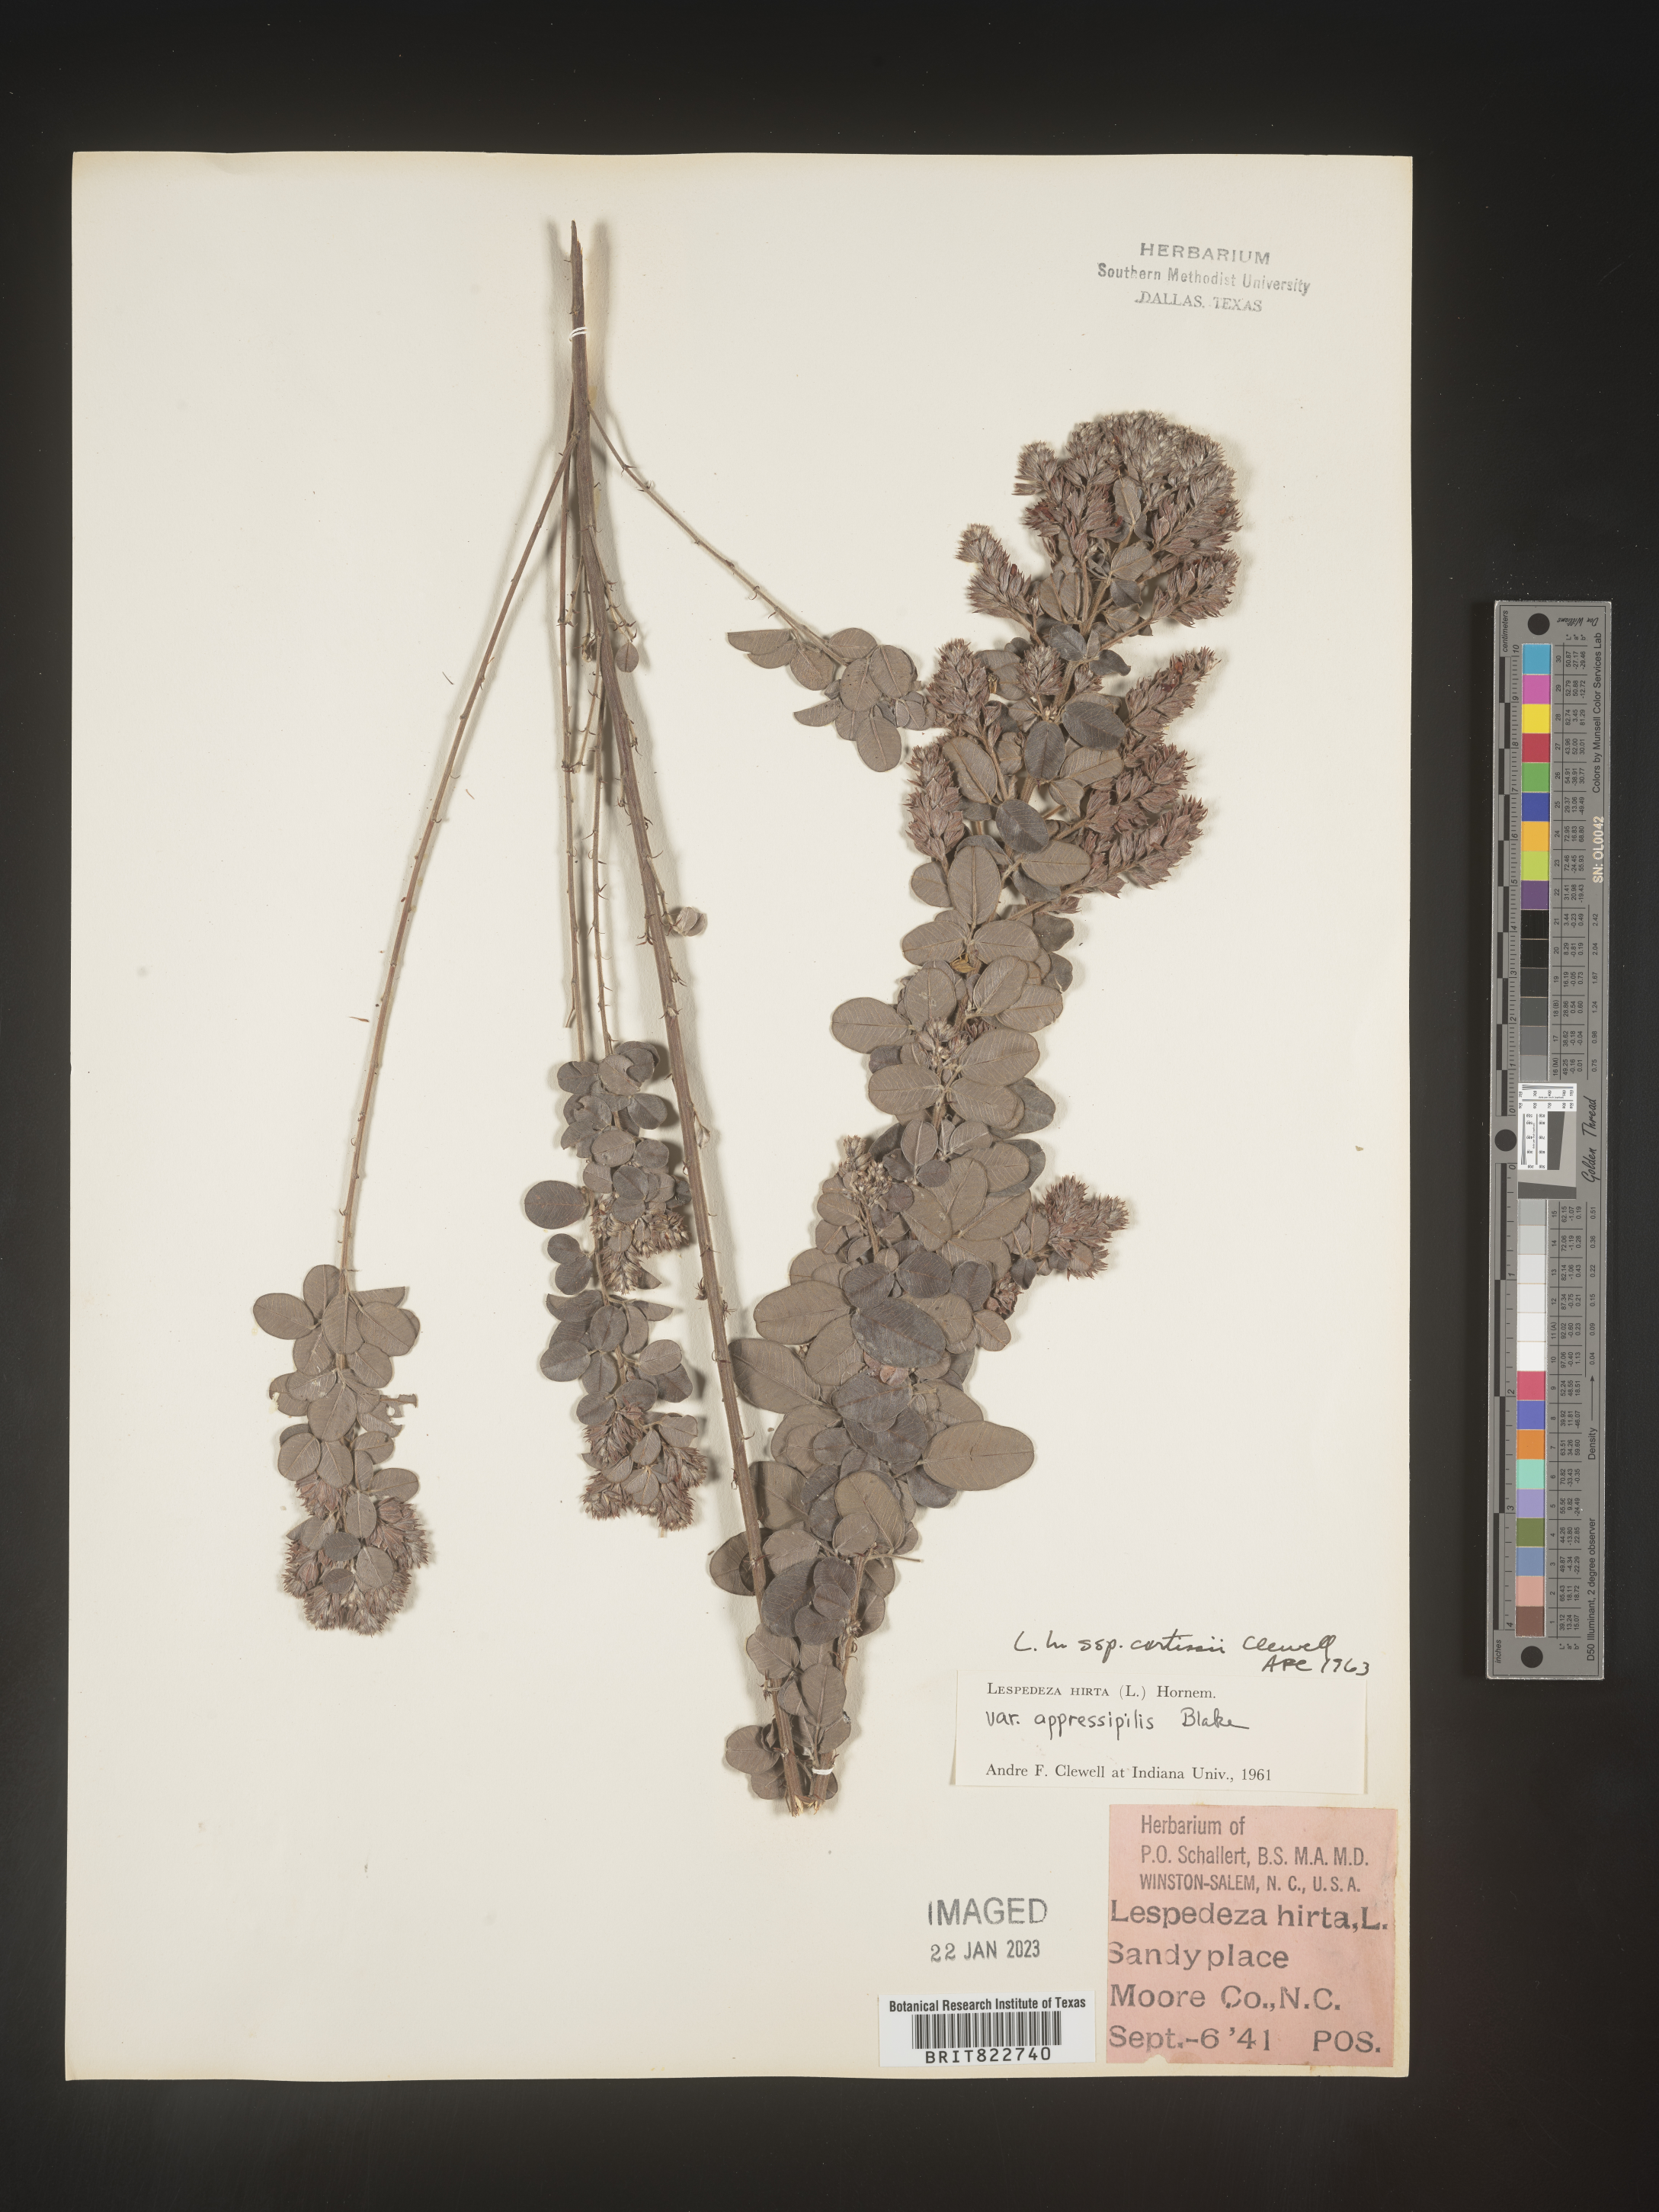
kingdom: Plantae
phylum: Tracheophyta
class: Magnoliopsida
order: Fabales
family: Fabaceae
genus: Lespedeza
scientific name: Lespedeza hirta
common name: Hairy lespedeza
